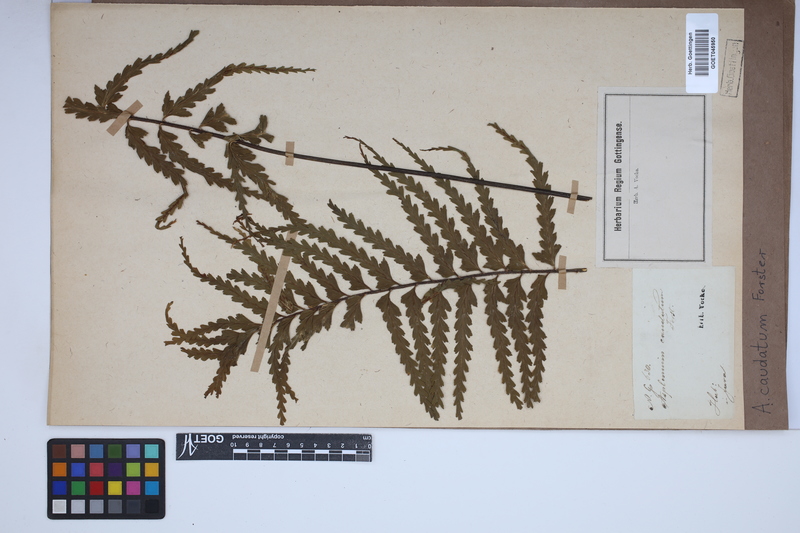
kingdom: Plantae
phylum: Tracheophyta
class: Polypodiopsida
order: Polypodiales
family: Aspleniaceae
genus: Asplenium
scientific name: Asplenium caudatum
